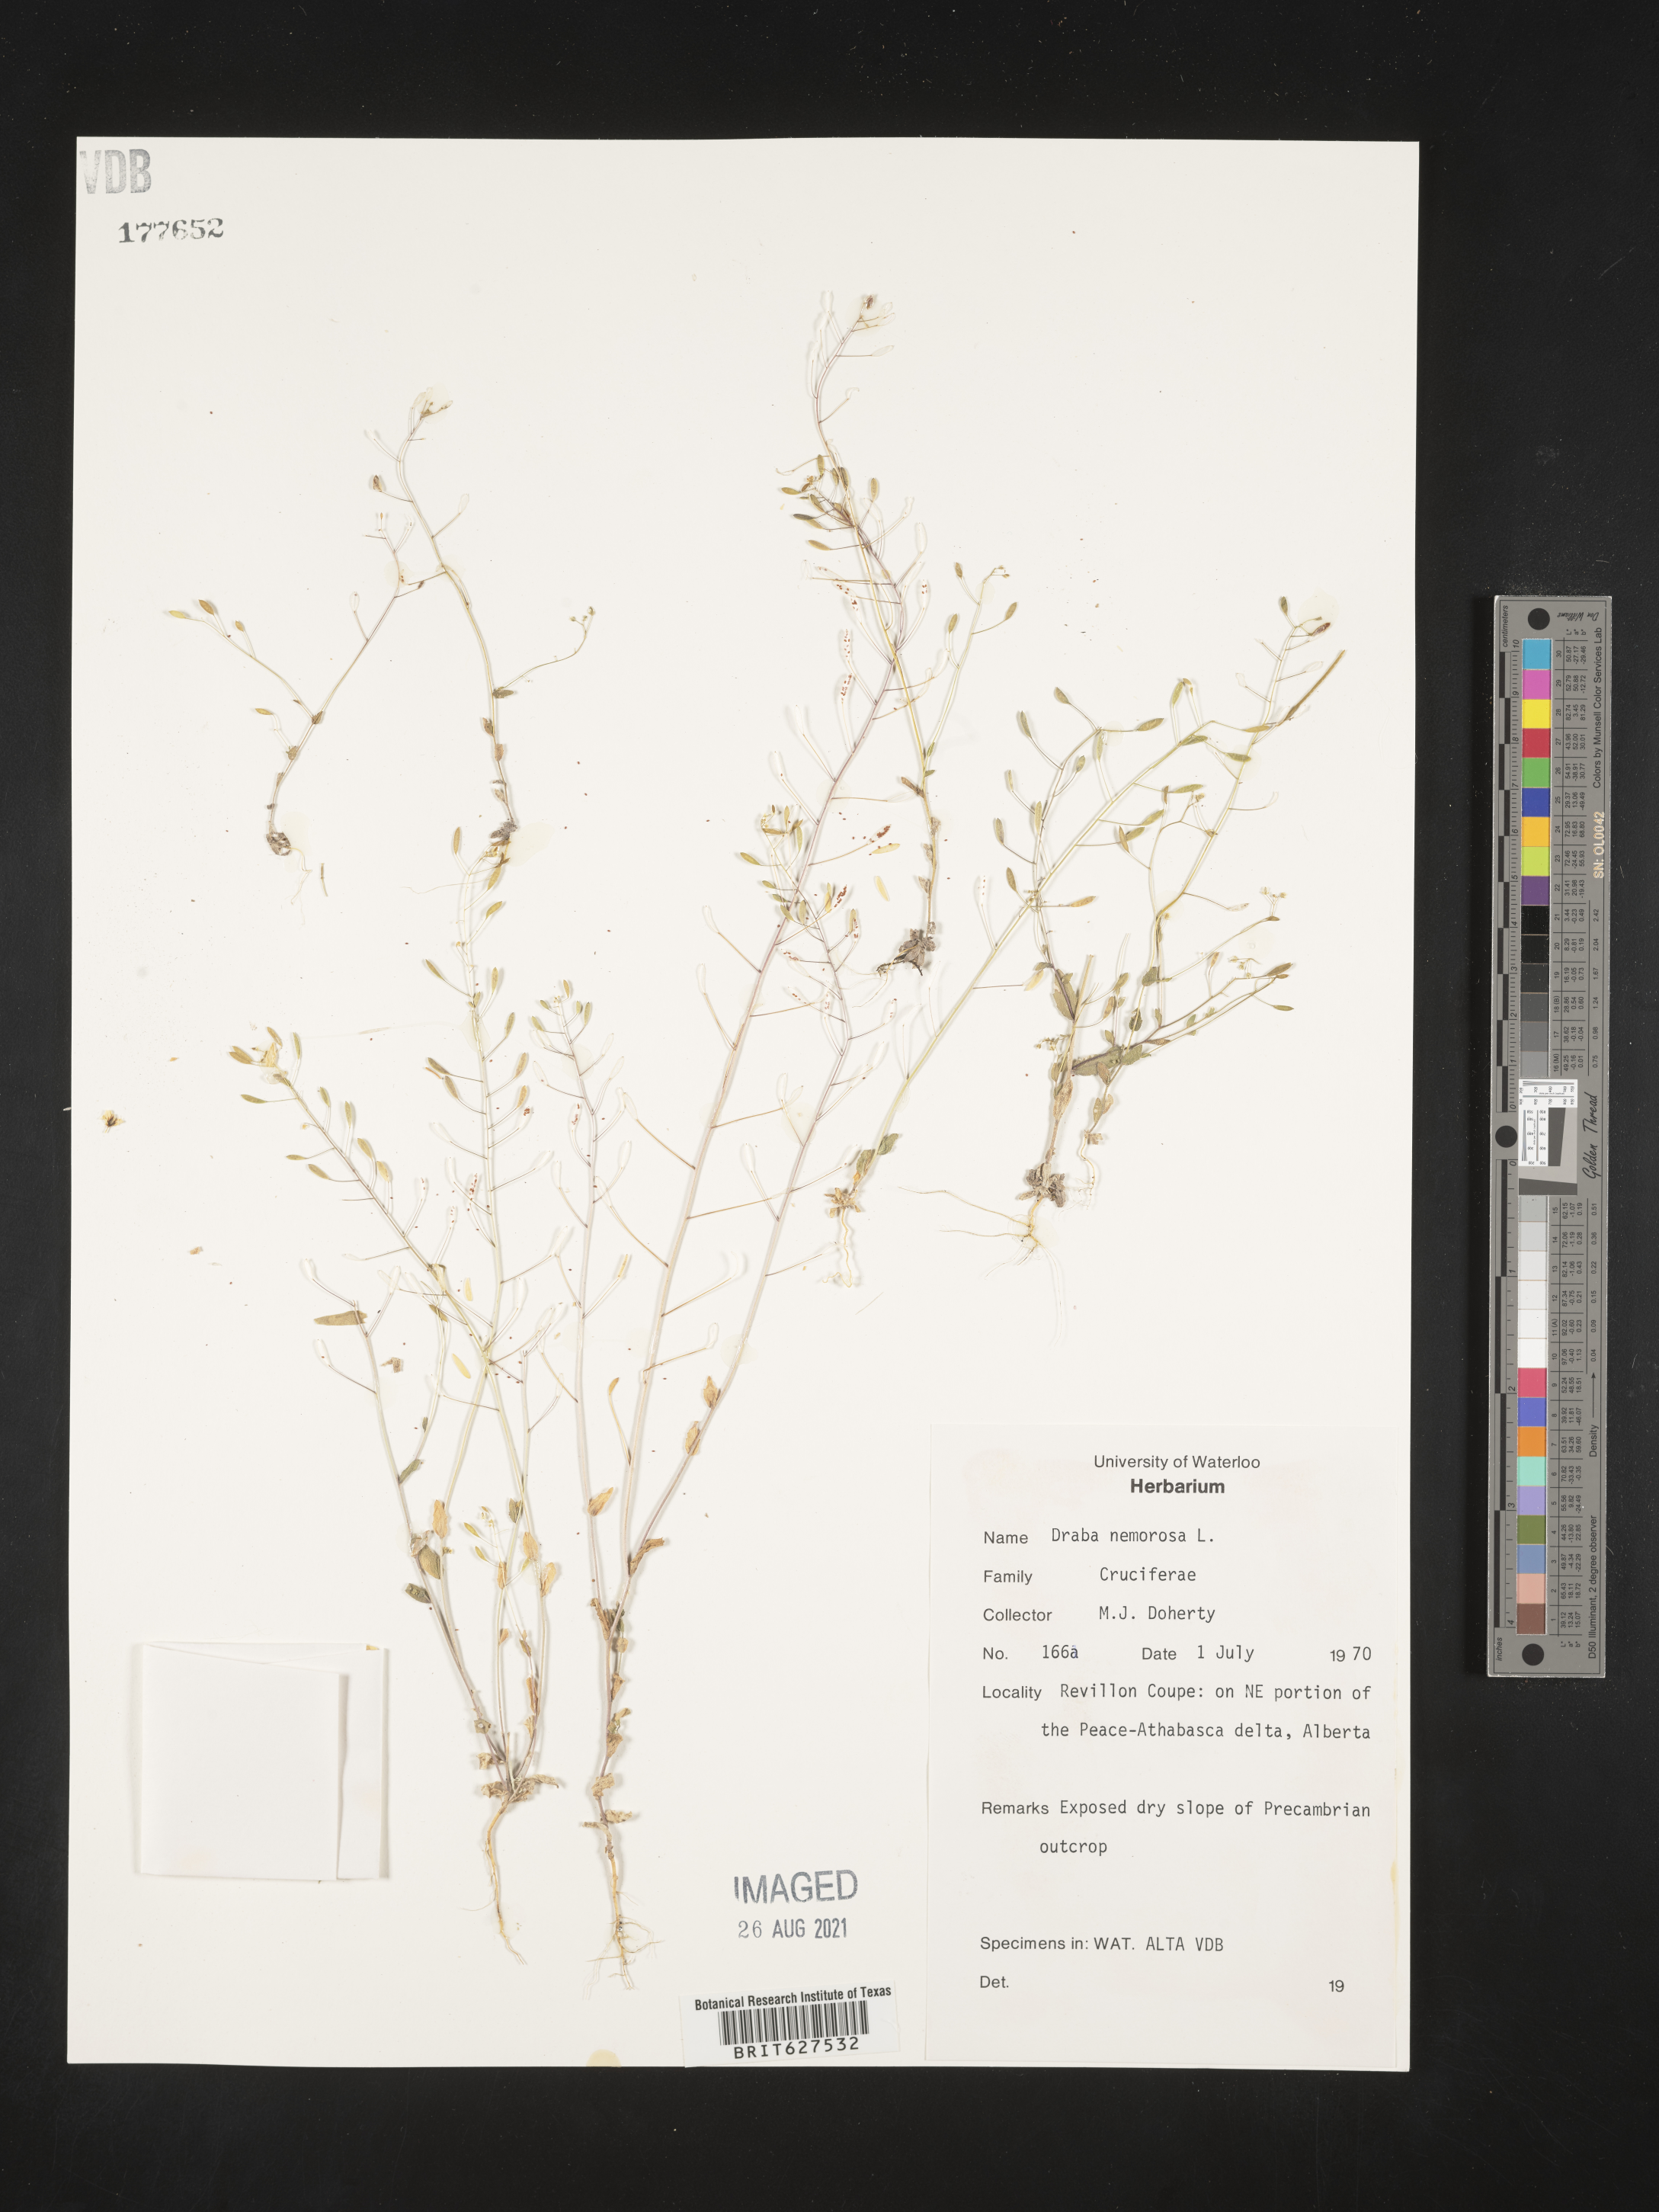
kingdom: Plantae
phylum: Tracheophyta
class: Magnoliopsida
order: Brassicales
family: Brassicaceae
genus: Draba
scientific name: Draba nemorosa
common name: Wood whitlow-grass
